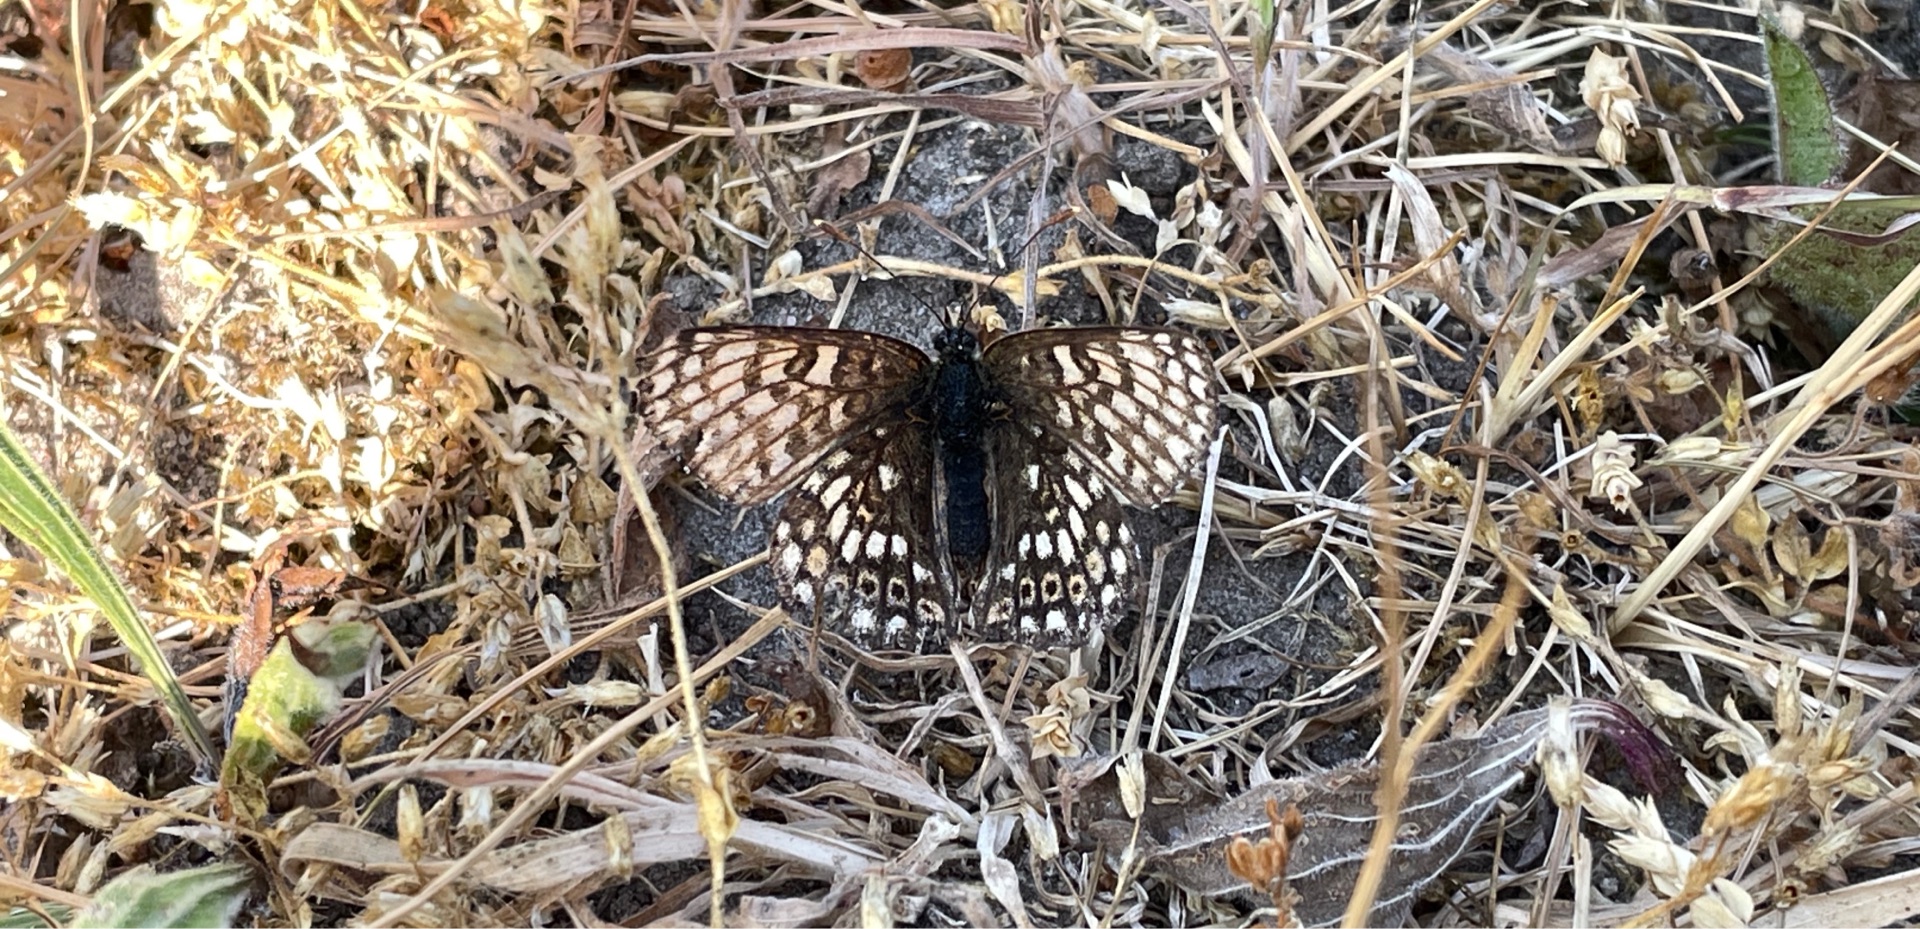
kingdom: Animalia
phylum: Arthropoda
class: Insecta
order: Lepidoptera
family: Nymphalidae
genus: Melitaea
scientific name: Melitaea cinxia
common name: Okkergul pletvinge
